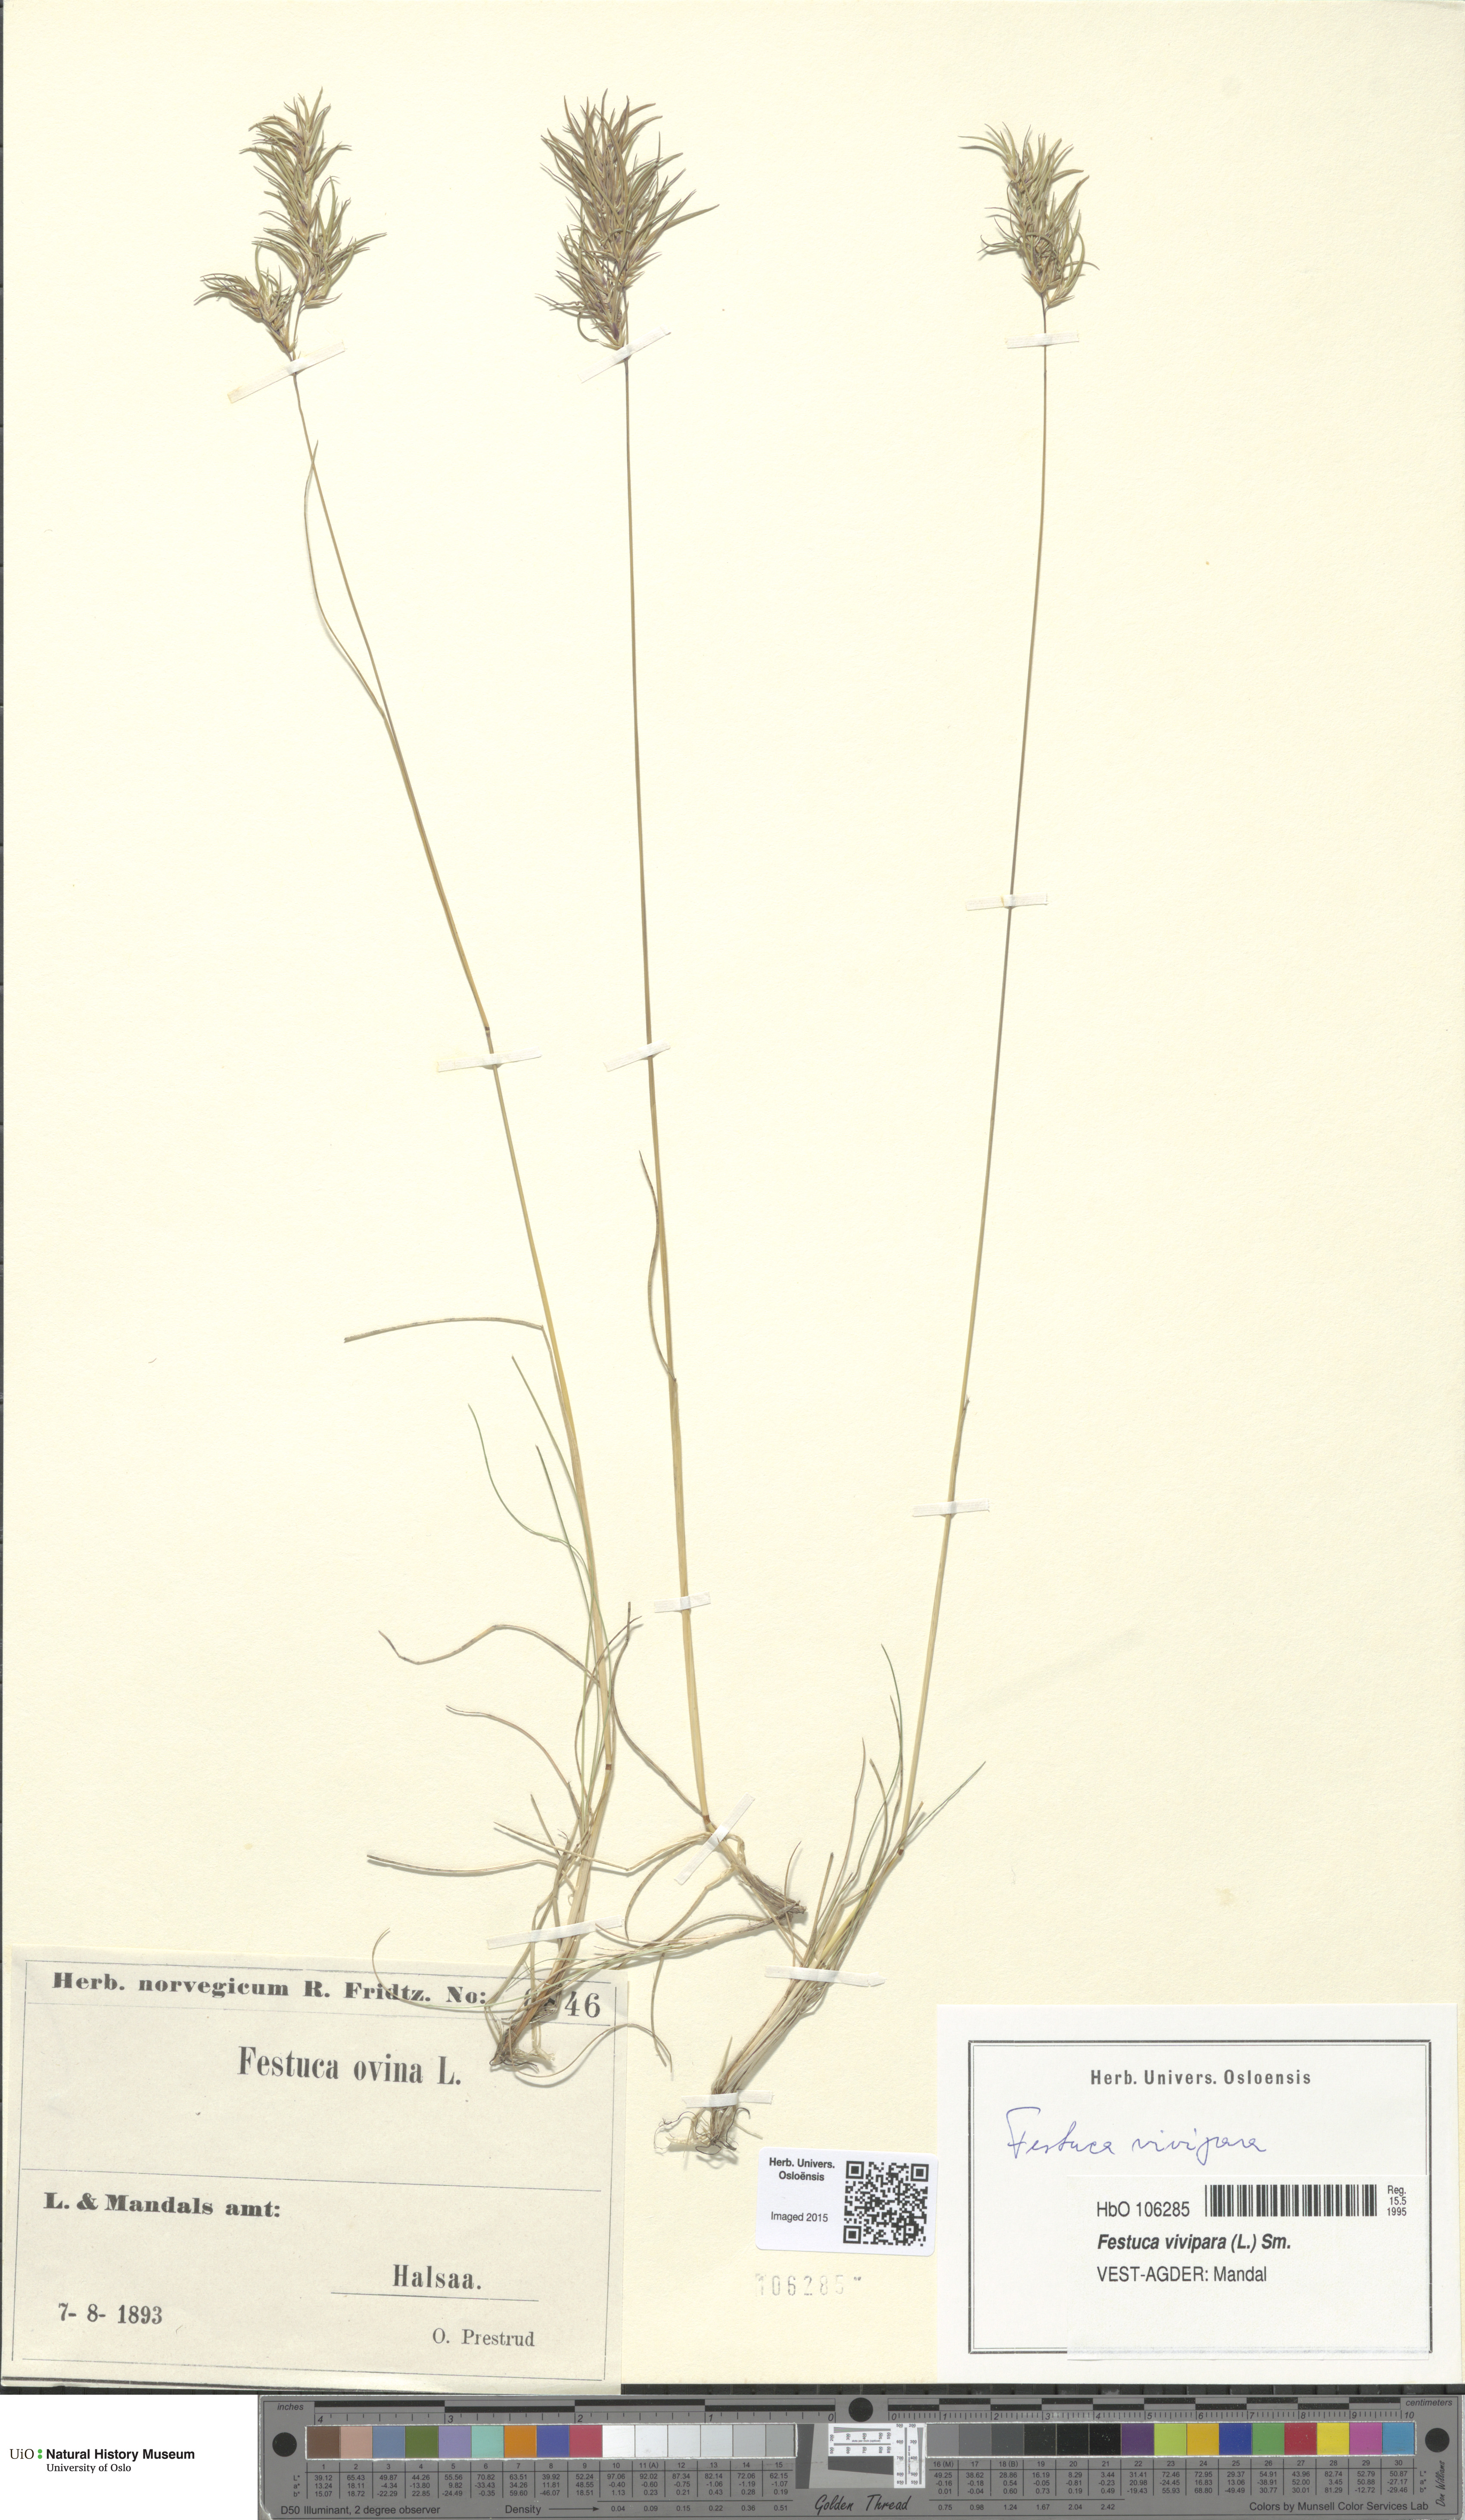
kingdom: Plantae
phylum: Tracheophyta
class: Liliopsida
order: Poales
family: Poaceae
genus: Festuca
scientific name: Festuca vivipara
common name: Viviparous sheep's-fescue
